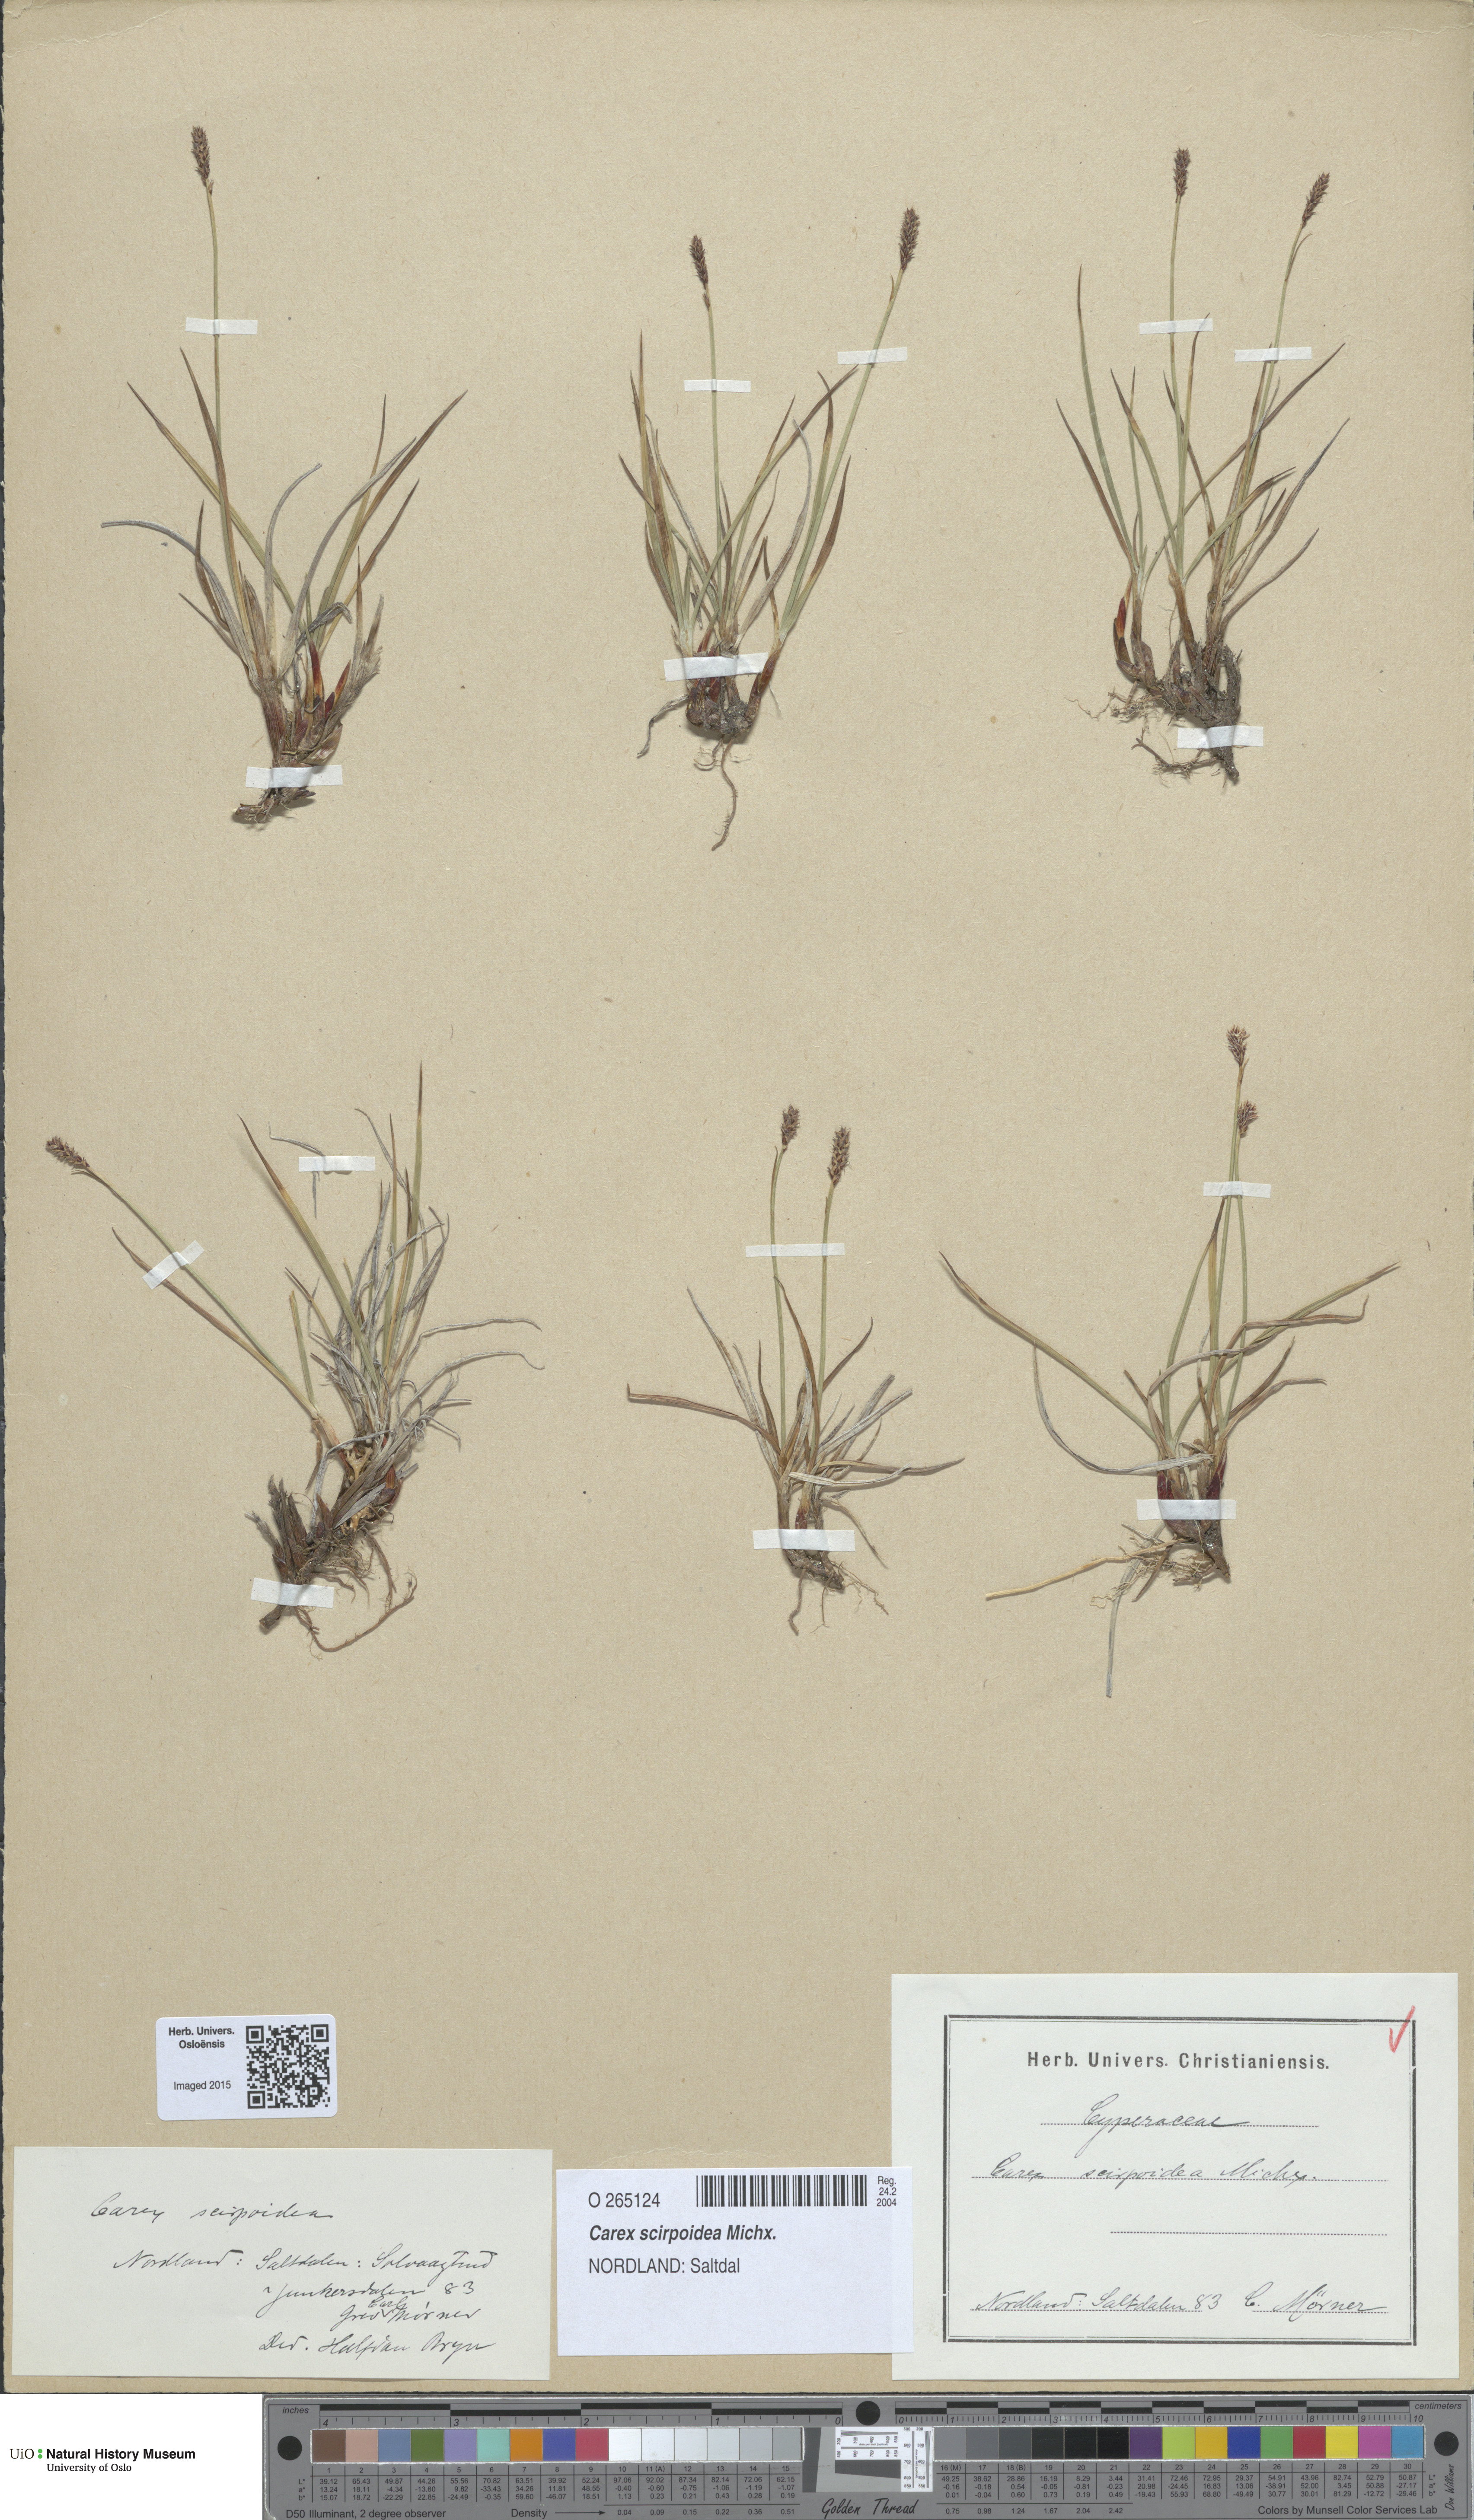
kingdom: Plantae
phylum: Tracheophyta
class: Liliopsida
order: Poales
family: Cyperaceae
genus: Carex
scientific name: Carex scirpoidea
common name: Canada single-spike sedge
